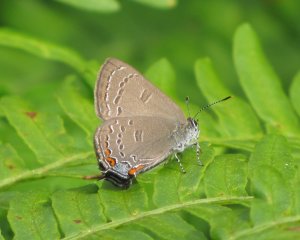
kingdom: Animalia
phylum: Arthropoda
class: Insecta
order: Lepidoptera
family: Lycaenidae
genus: Satyrium
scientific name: Satyrium calanus
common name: Banded Hairstreak
